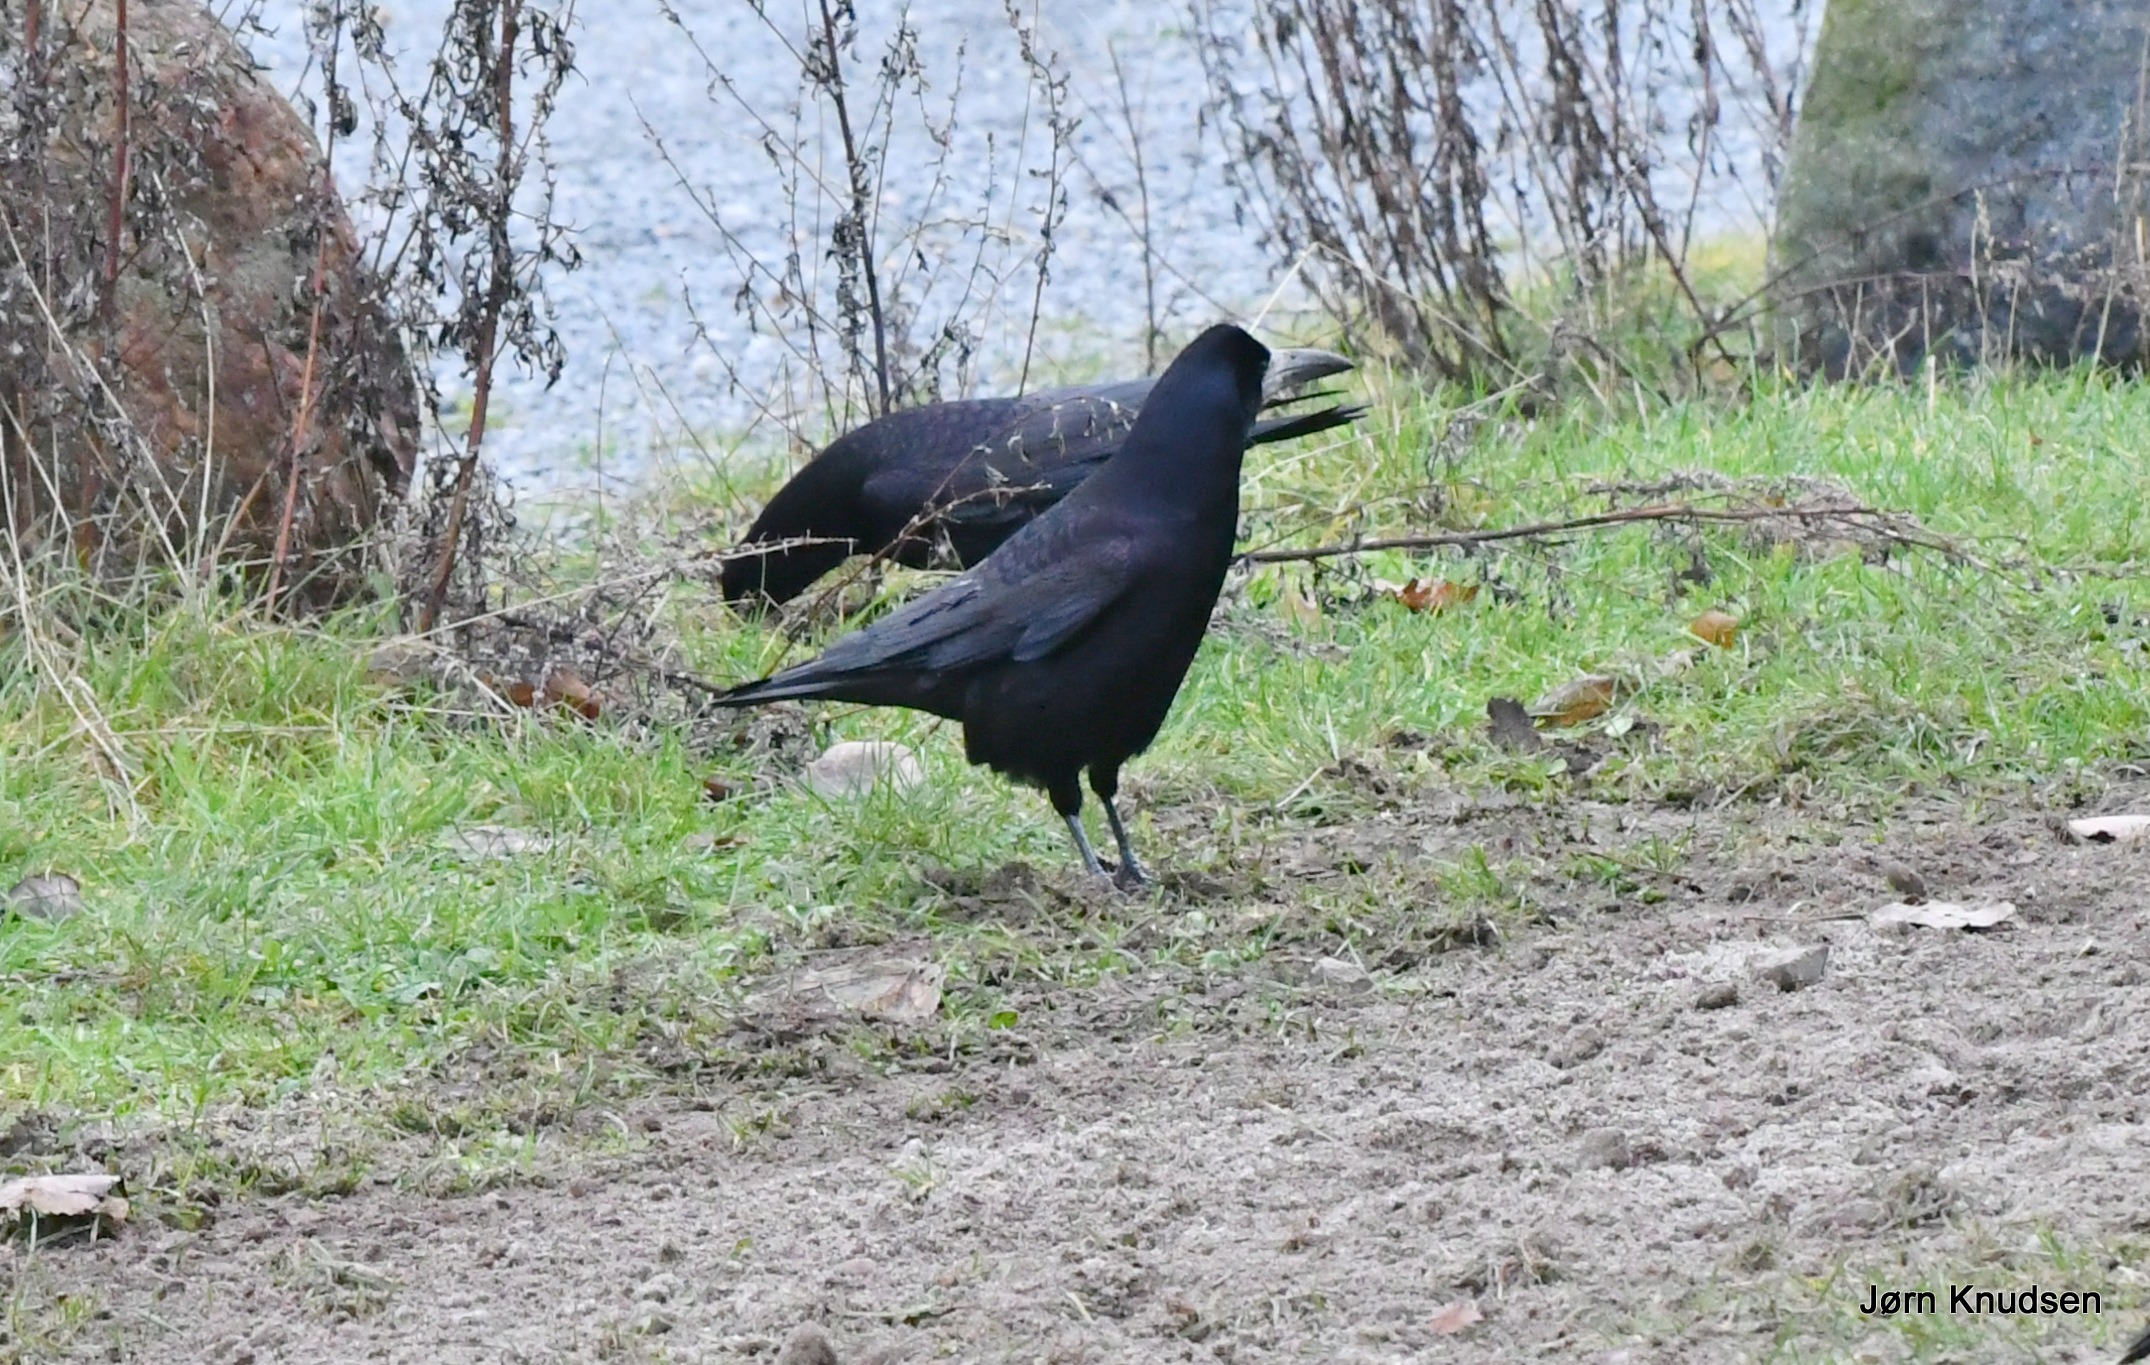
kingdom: Animalia
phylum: Chordata
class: Aves
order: Passeriformes
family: Corvidae
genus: Corvus
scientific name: Corvus frugilegus
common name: Råge
